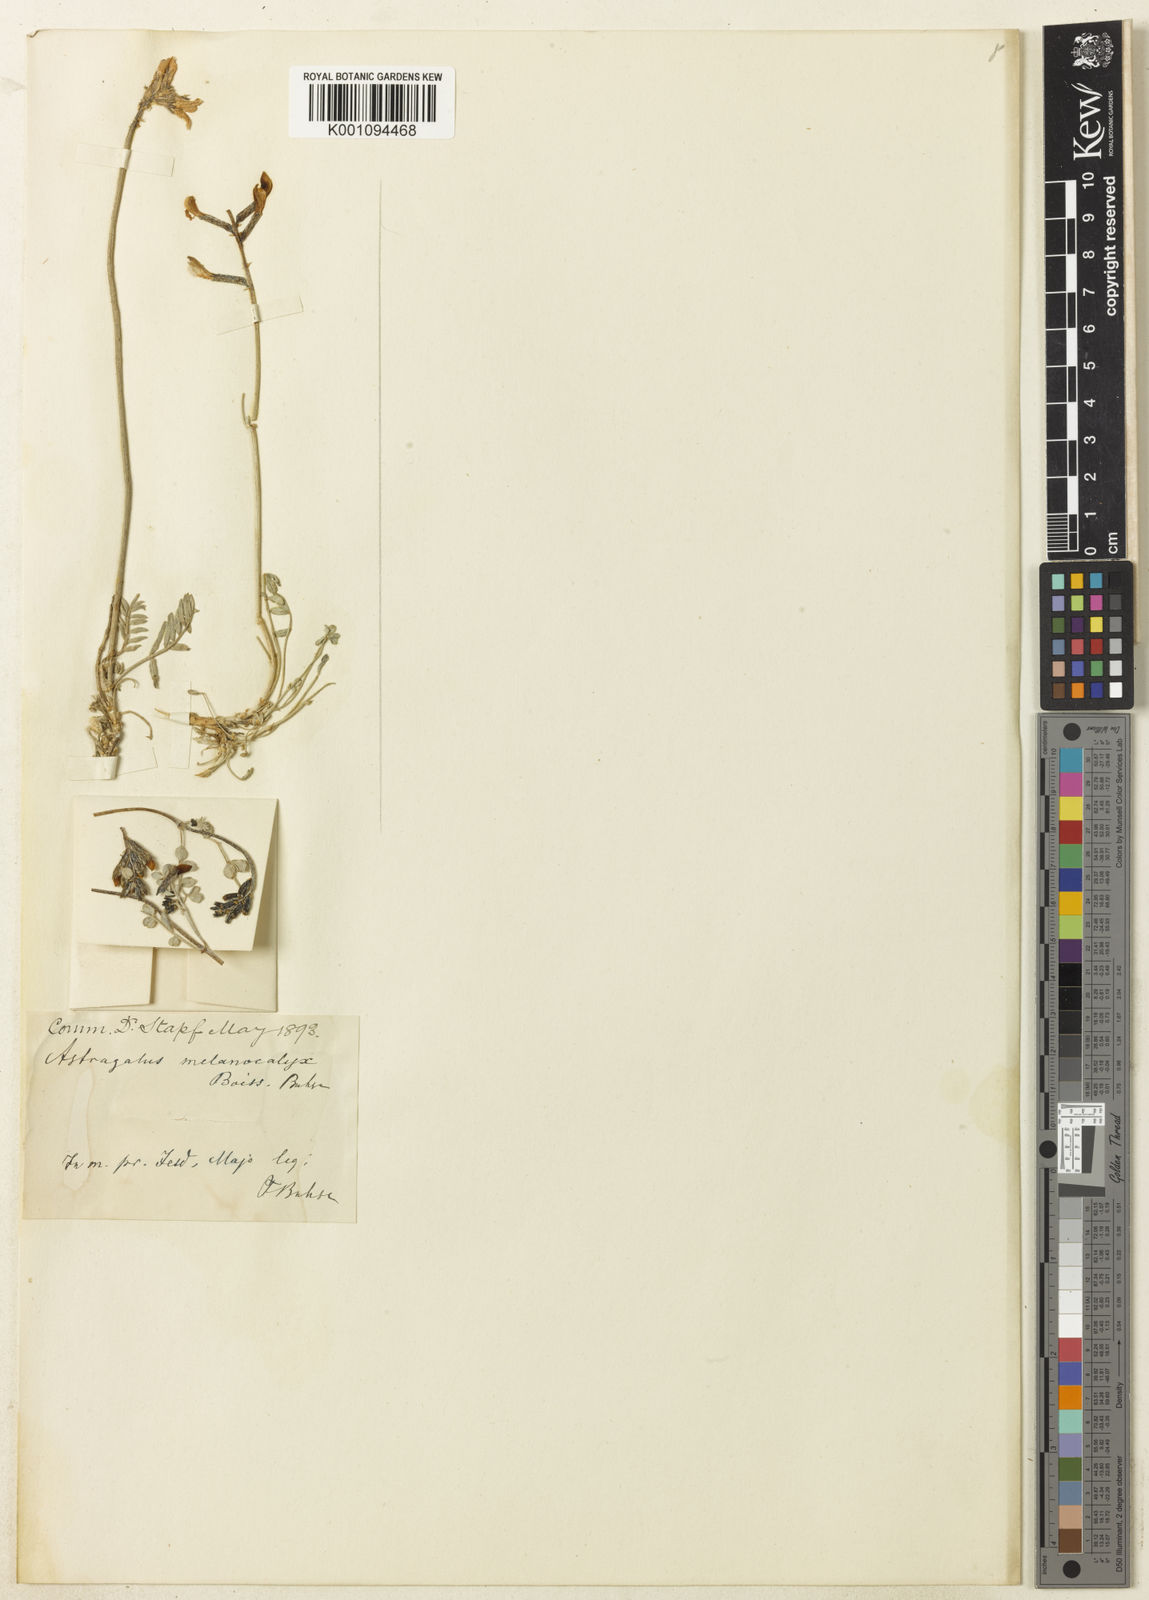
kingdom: Plantae
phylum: Tracheophyta
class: Magnoliopsida
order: Fabales
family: Fabaceae
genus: Astragalus
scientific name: Astragalus
